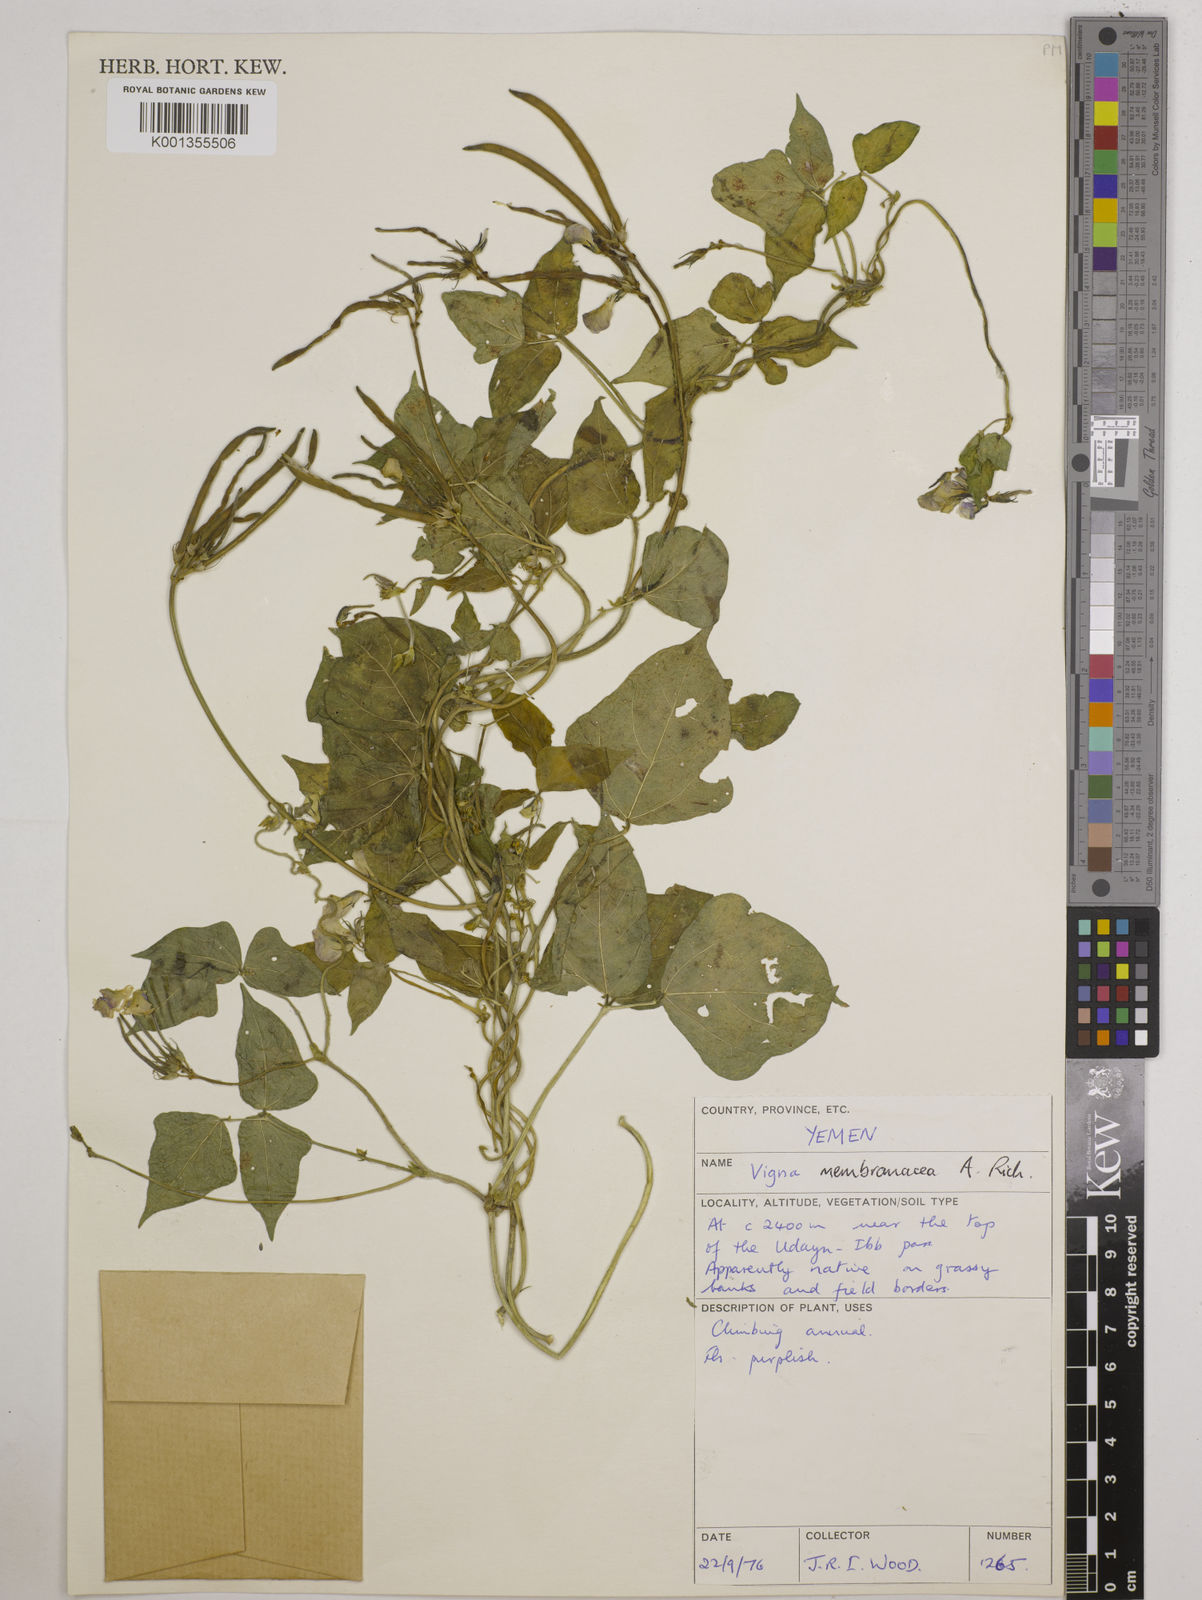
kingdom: Plantae
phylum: Tracheophyta
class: Magnoliopsida
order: Fabales
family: Fabaceae
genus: Vigna
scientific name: Vigna membranacea
